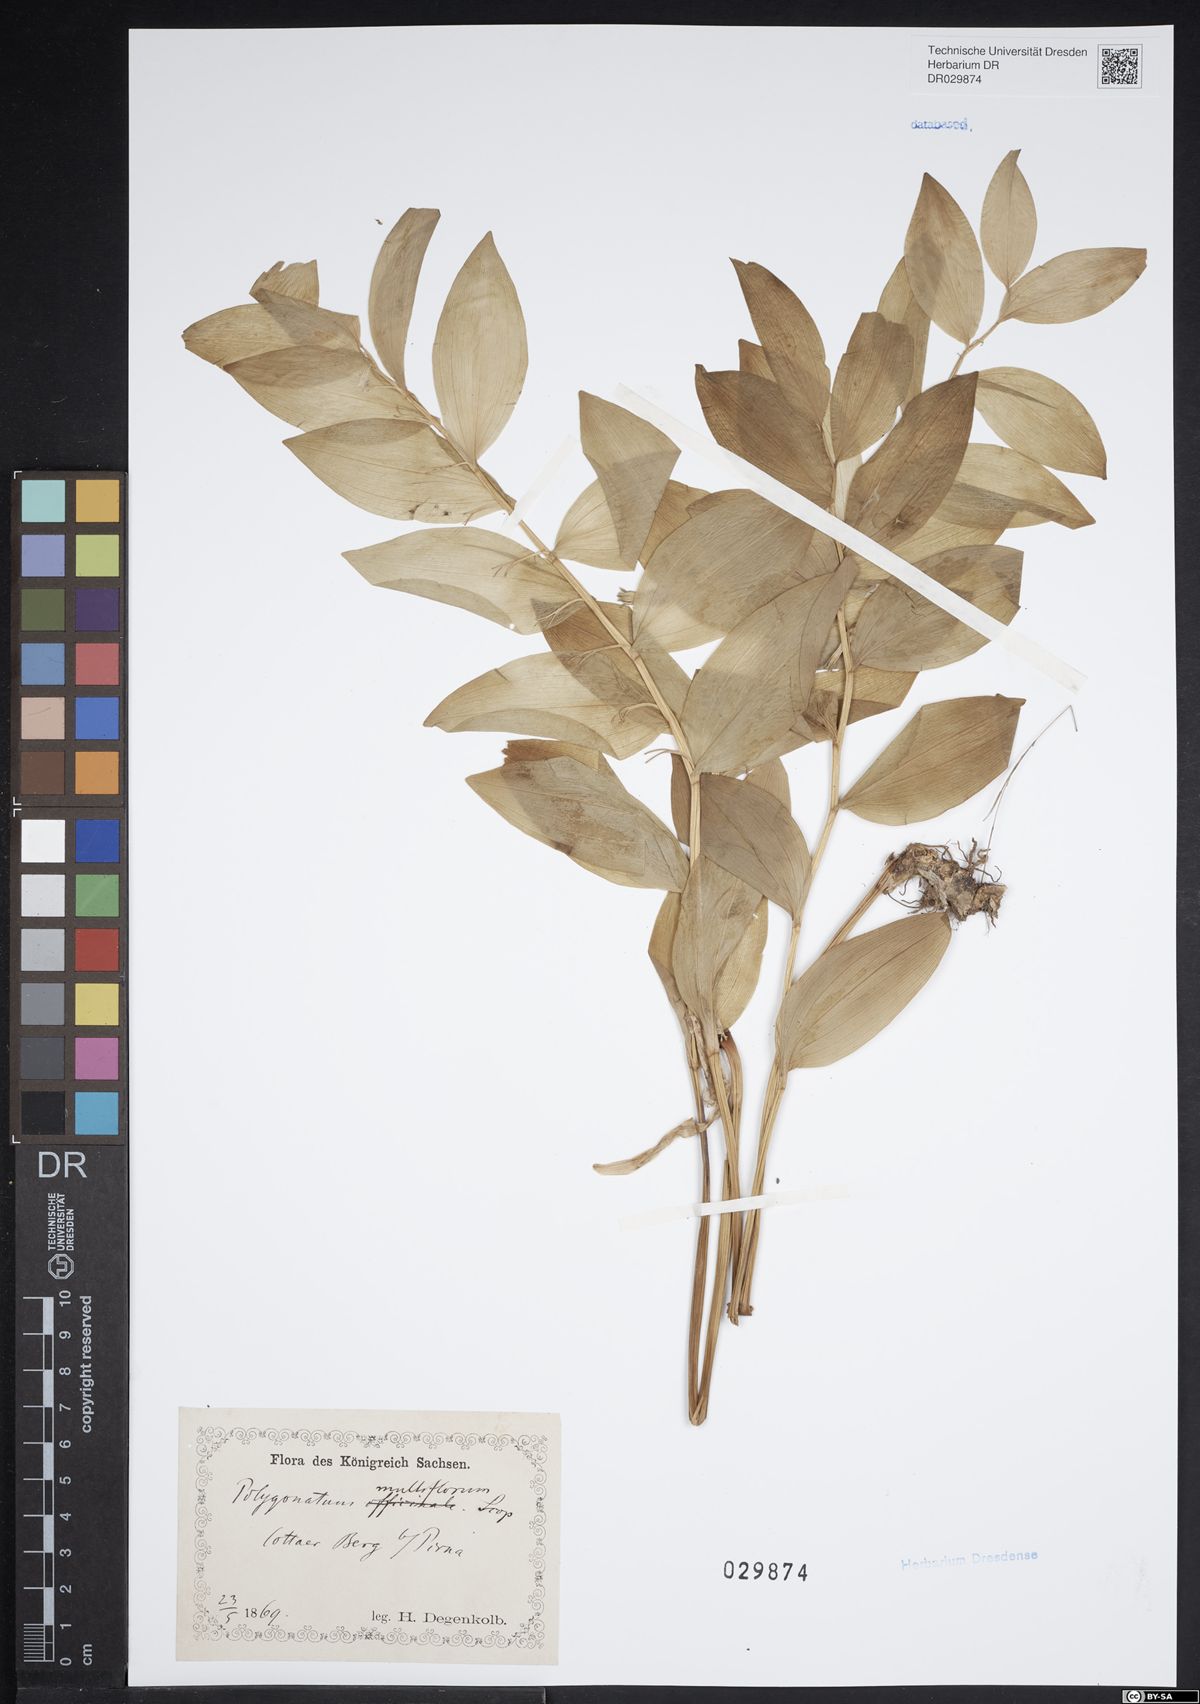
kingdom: Plantae
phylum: Tracheophyta
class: Liliopsida
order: Asparagales
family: Asparagaceae
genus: Polygonatum
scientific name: Polygonatum odoratum
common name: Angular solomon's-seal
